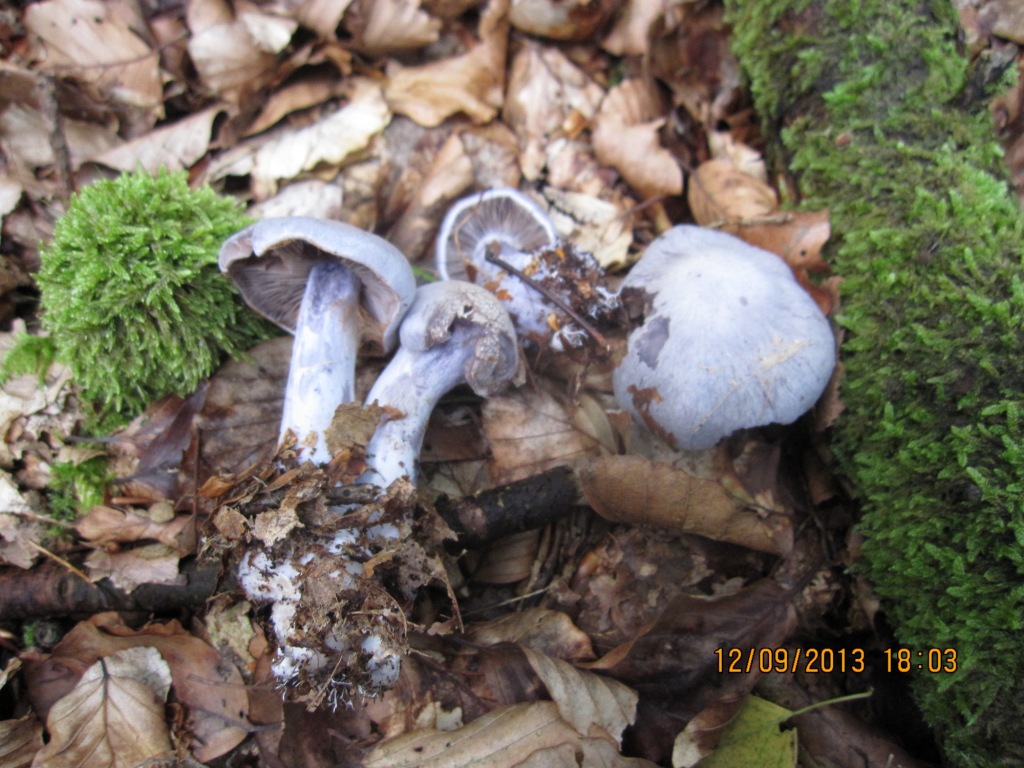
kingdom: Fungi
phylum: Basidiomycota
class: Agaricomycetes
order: Agaricales
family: Cortinariaceae
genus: Cortinarius
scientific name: Cortinarius alboviolaceus
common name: lysviolet slørhat
